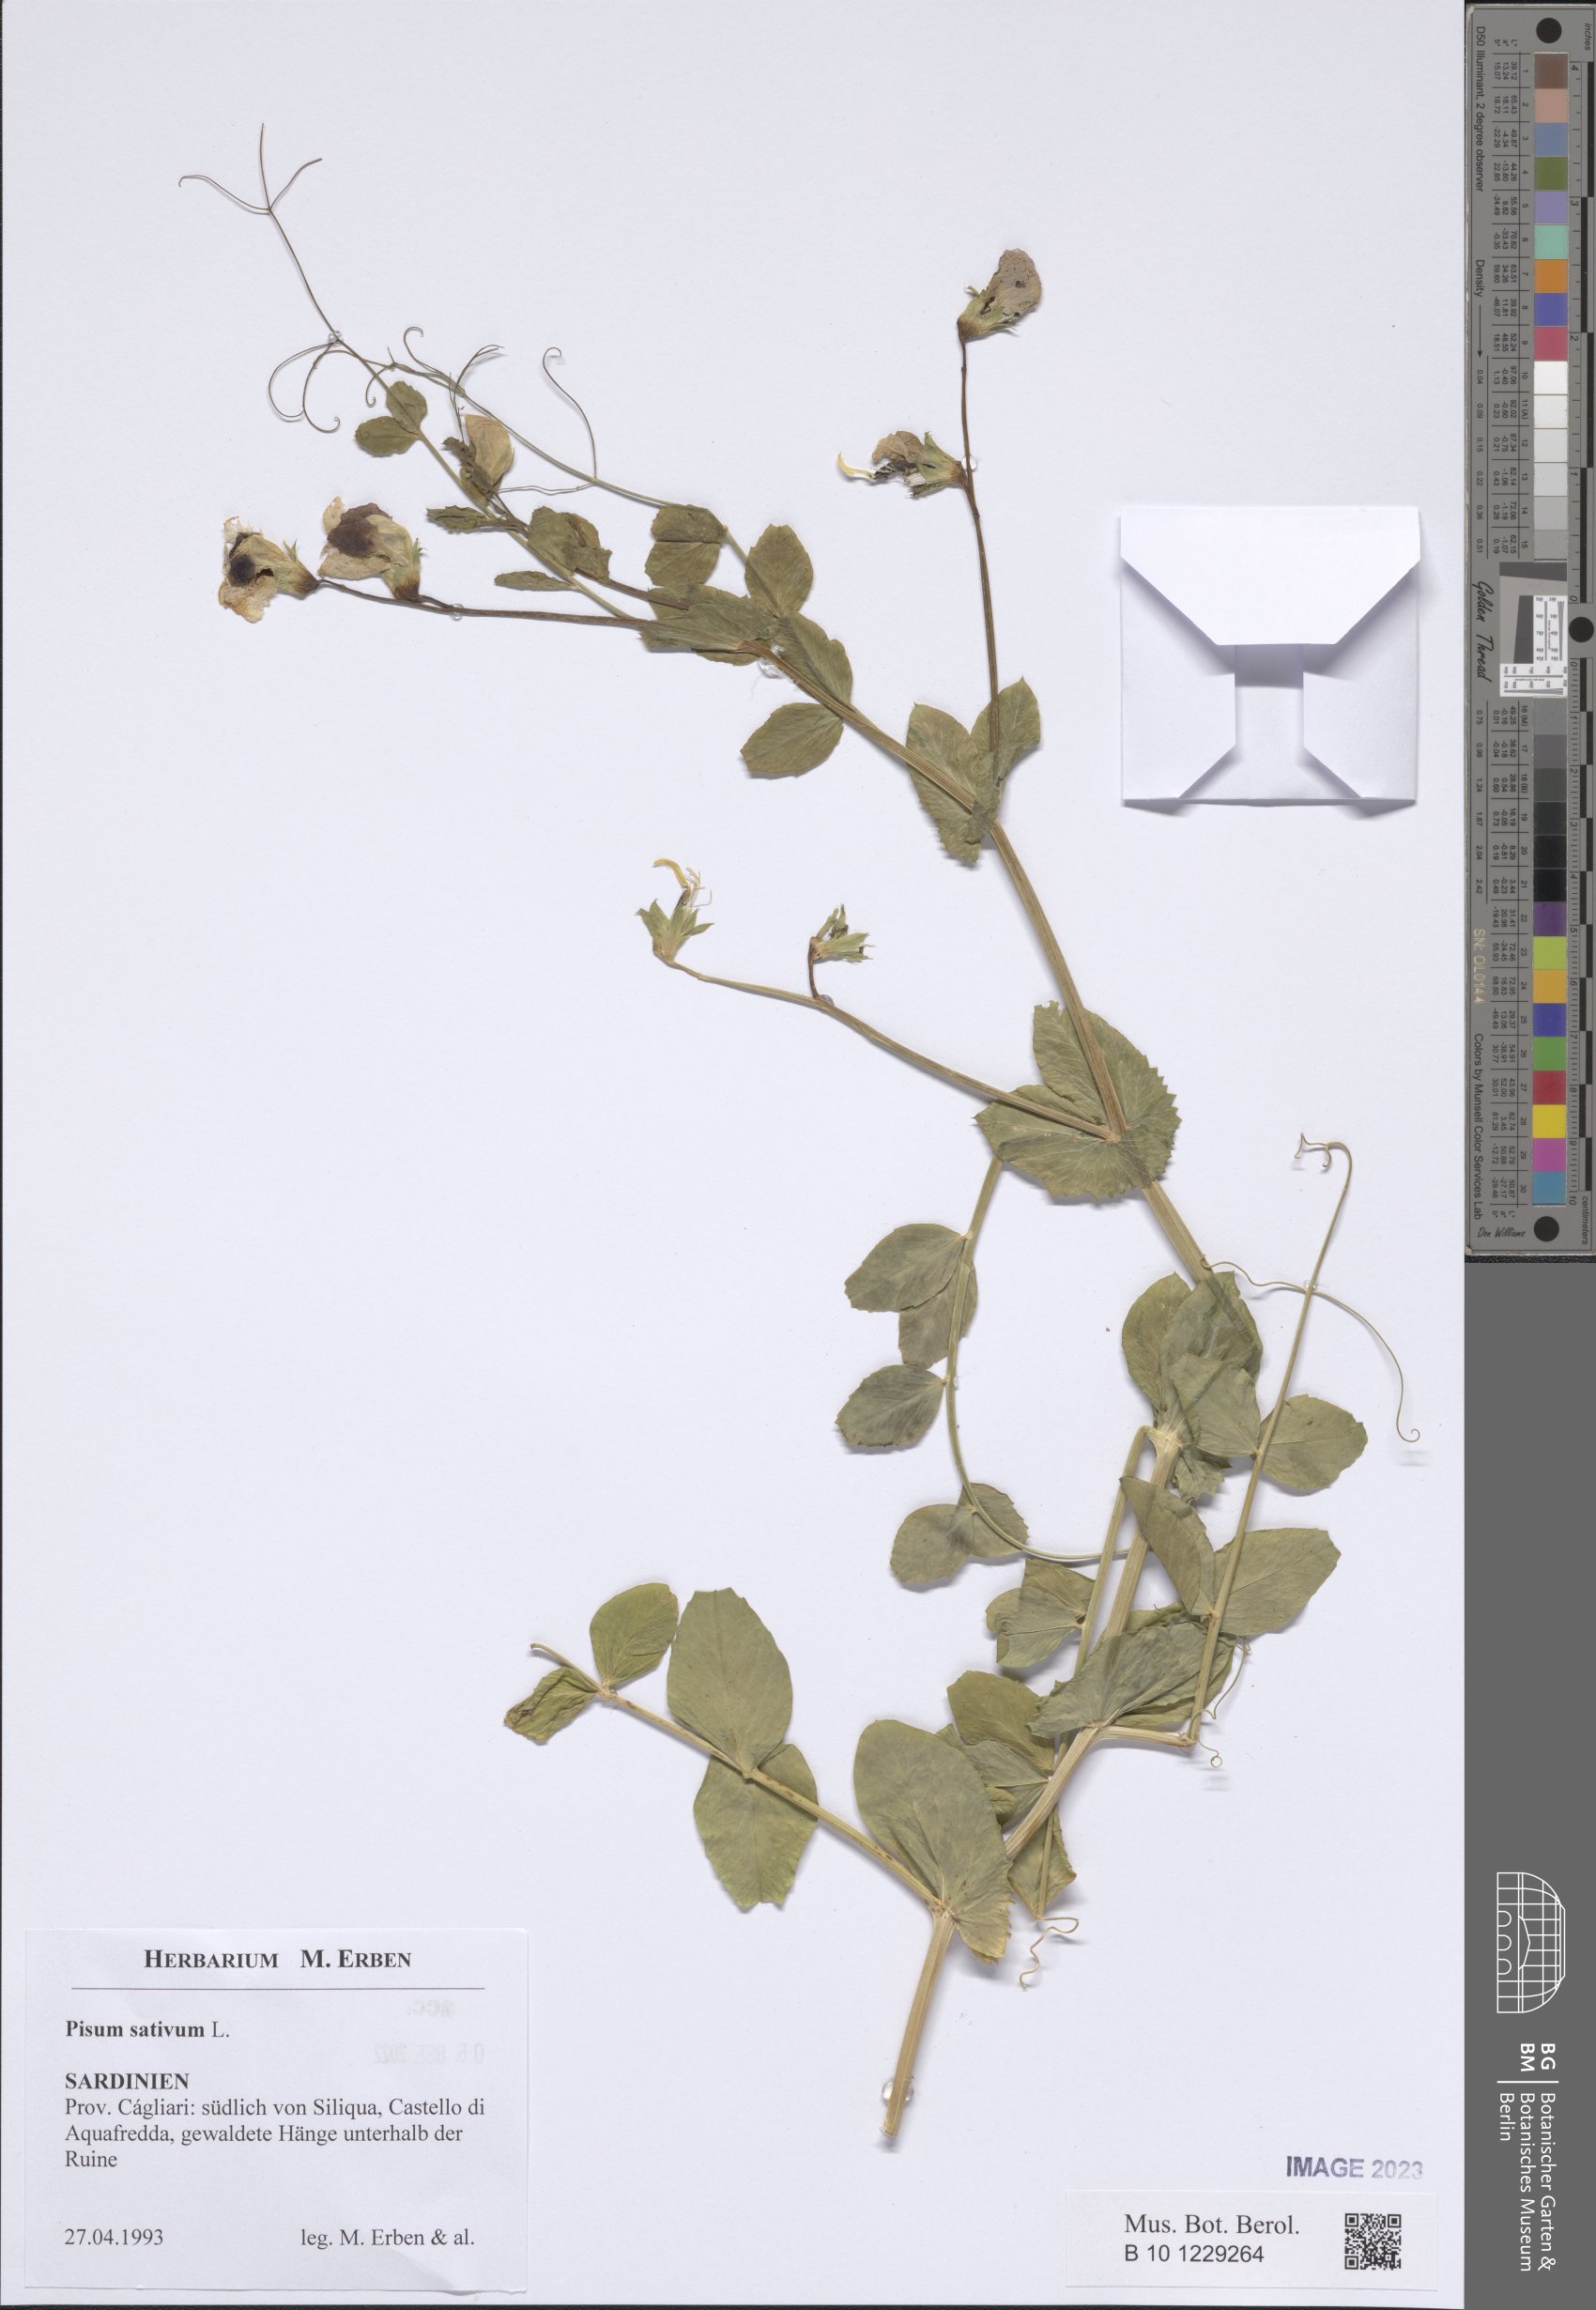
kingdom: Plantae
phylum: Tracheophyta
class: Magnoliopsida
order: Fabales
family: Fabaceae
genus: Lathyrus
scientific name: Lathyrus oleraceus
